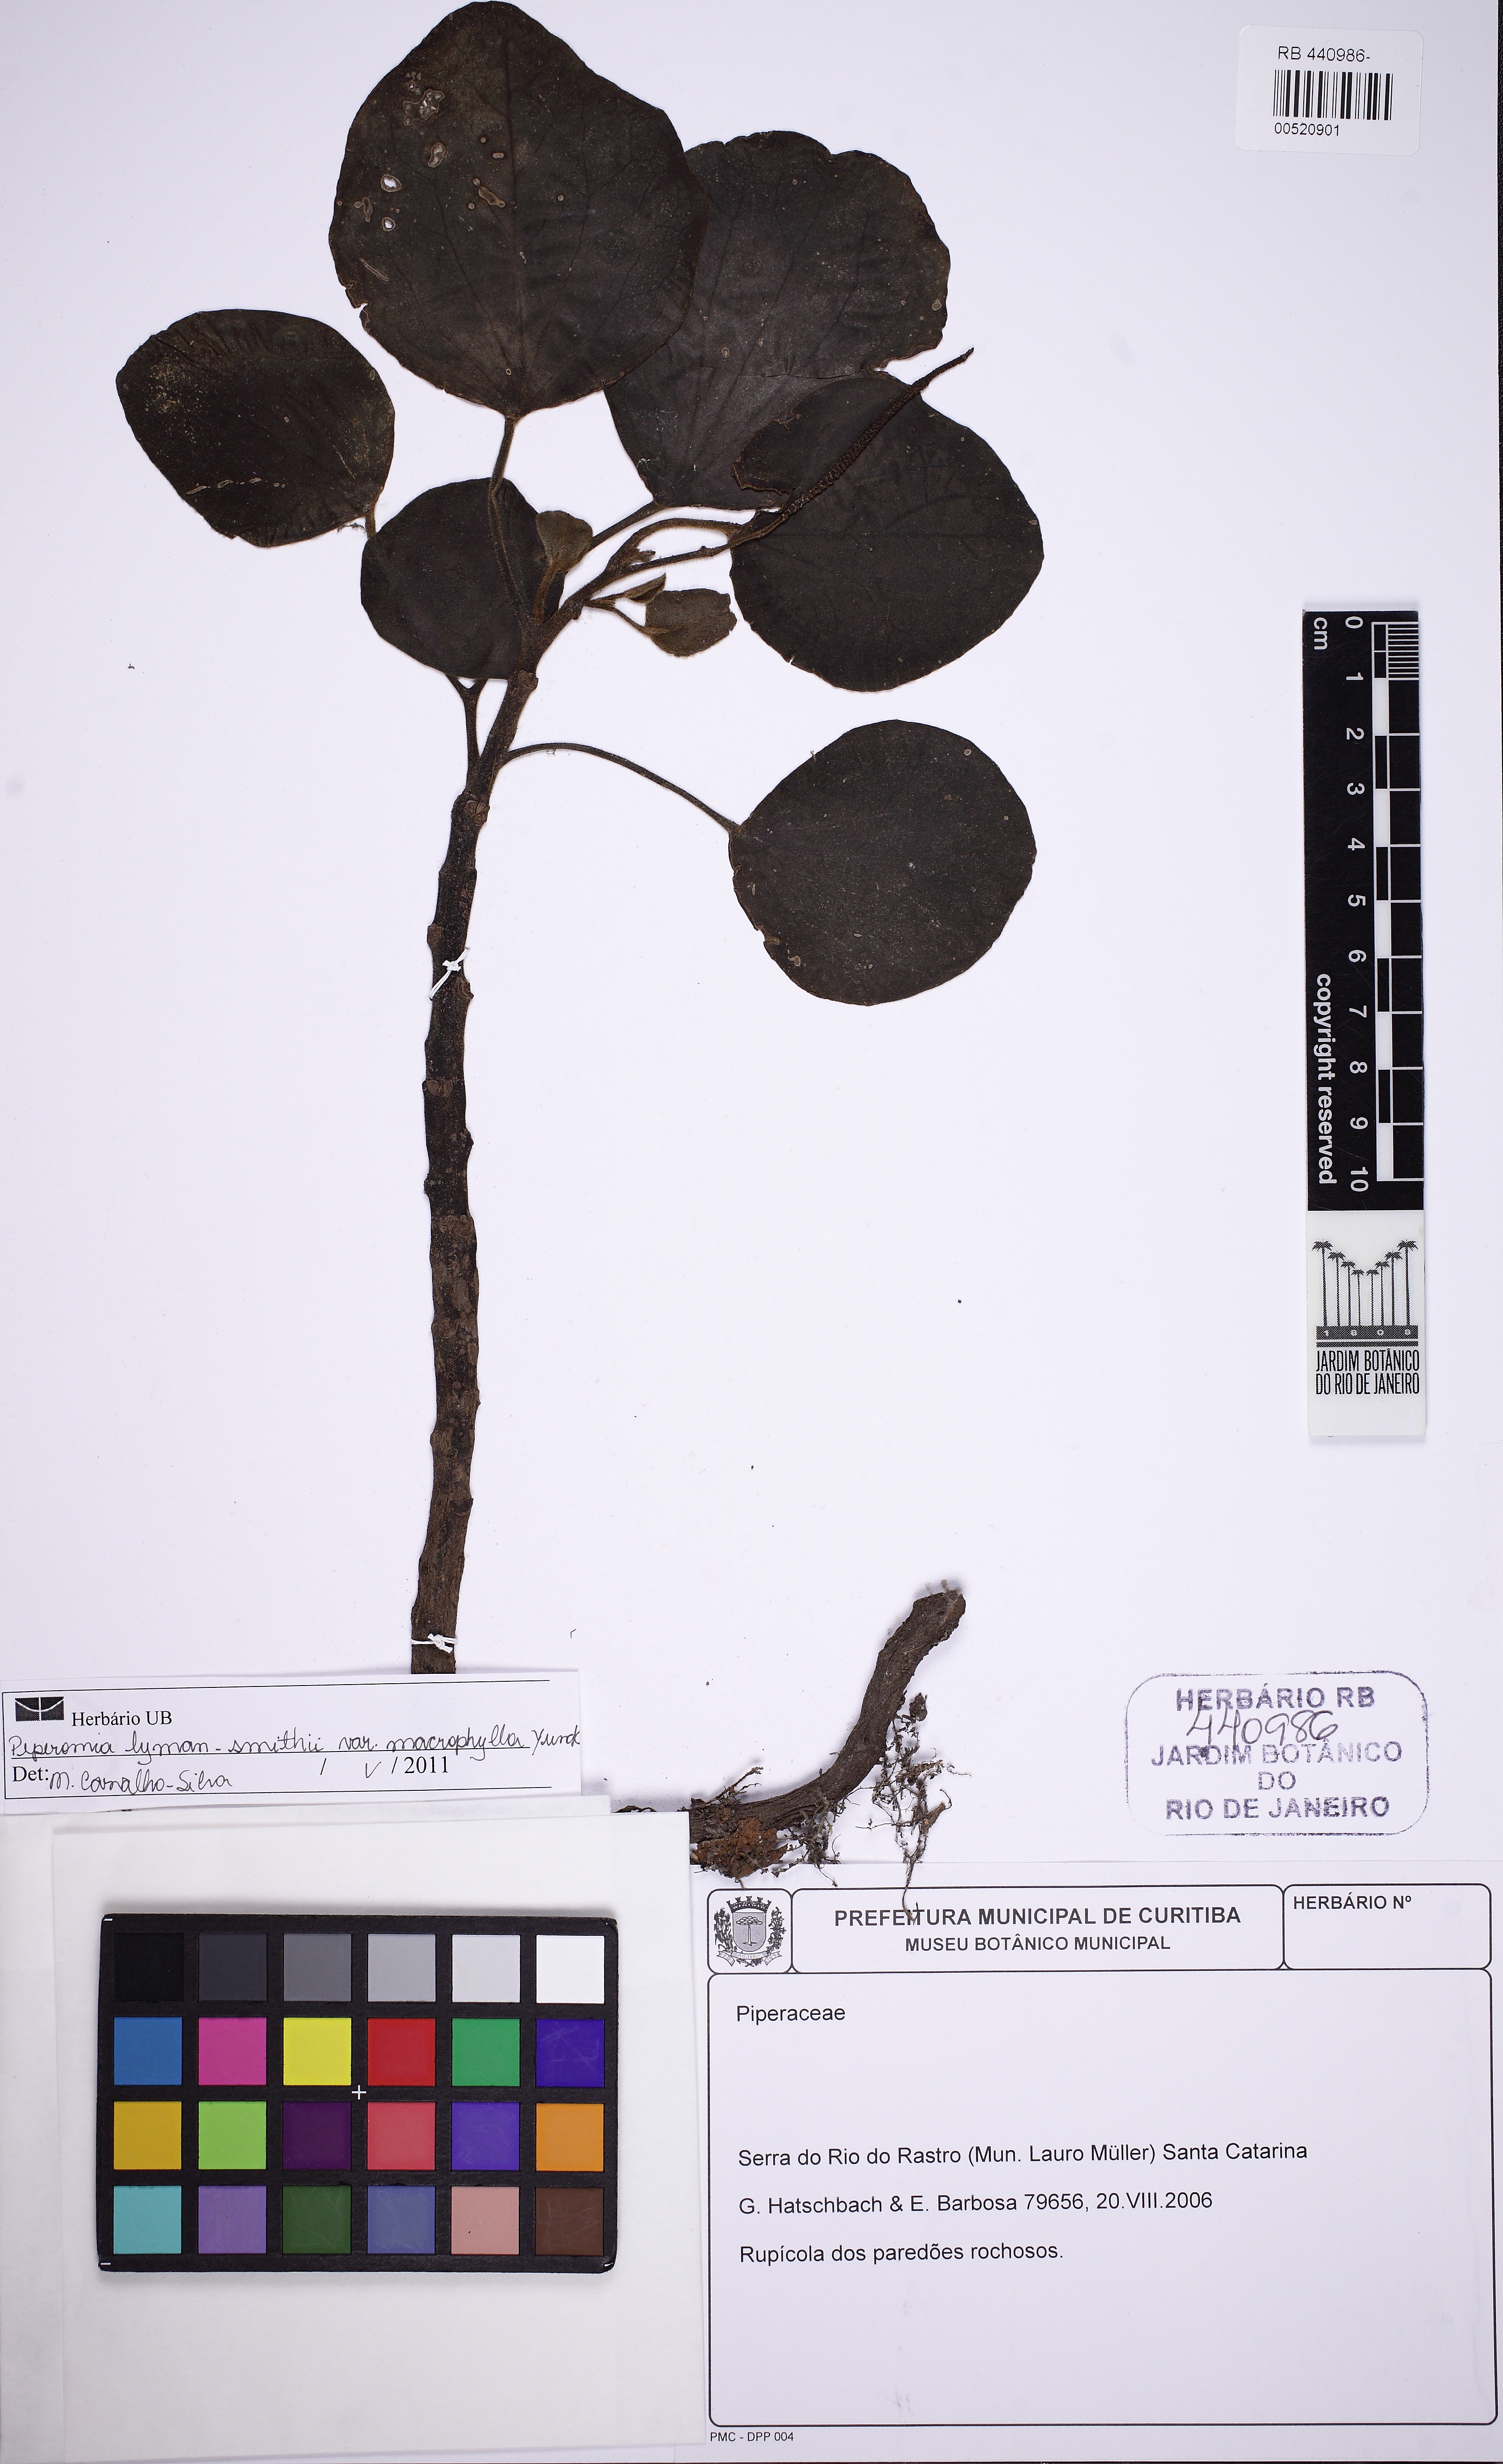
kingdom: Plantae
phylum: Tracheophyta
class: Magnoliopsida
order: Piperales
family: Piperaceae
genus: Peperomia
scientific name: Peperomia
